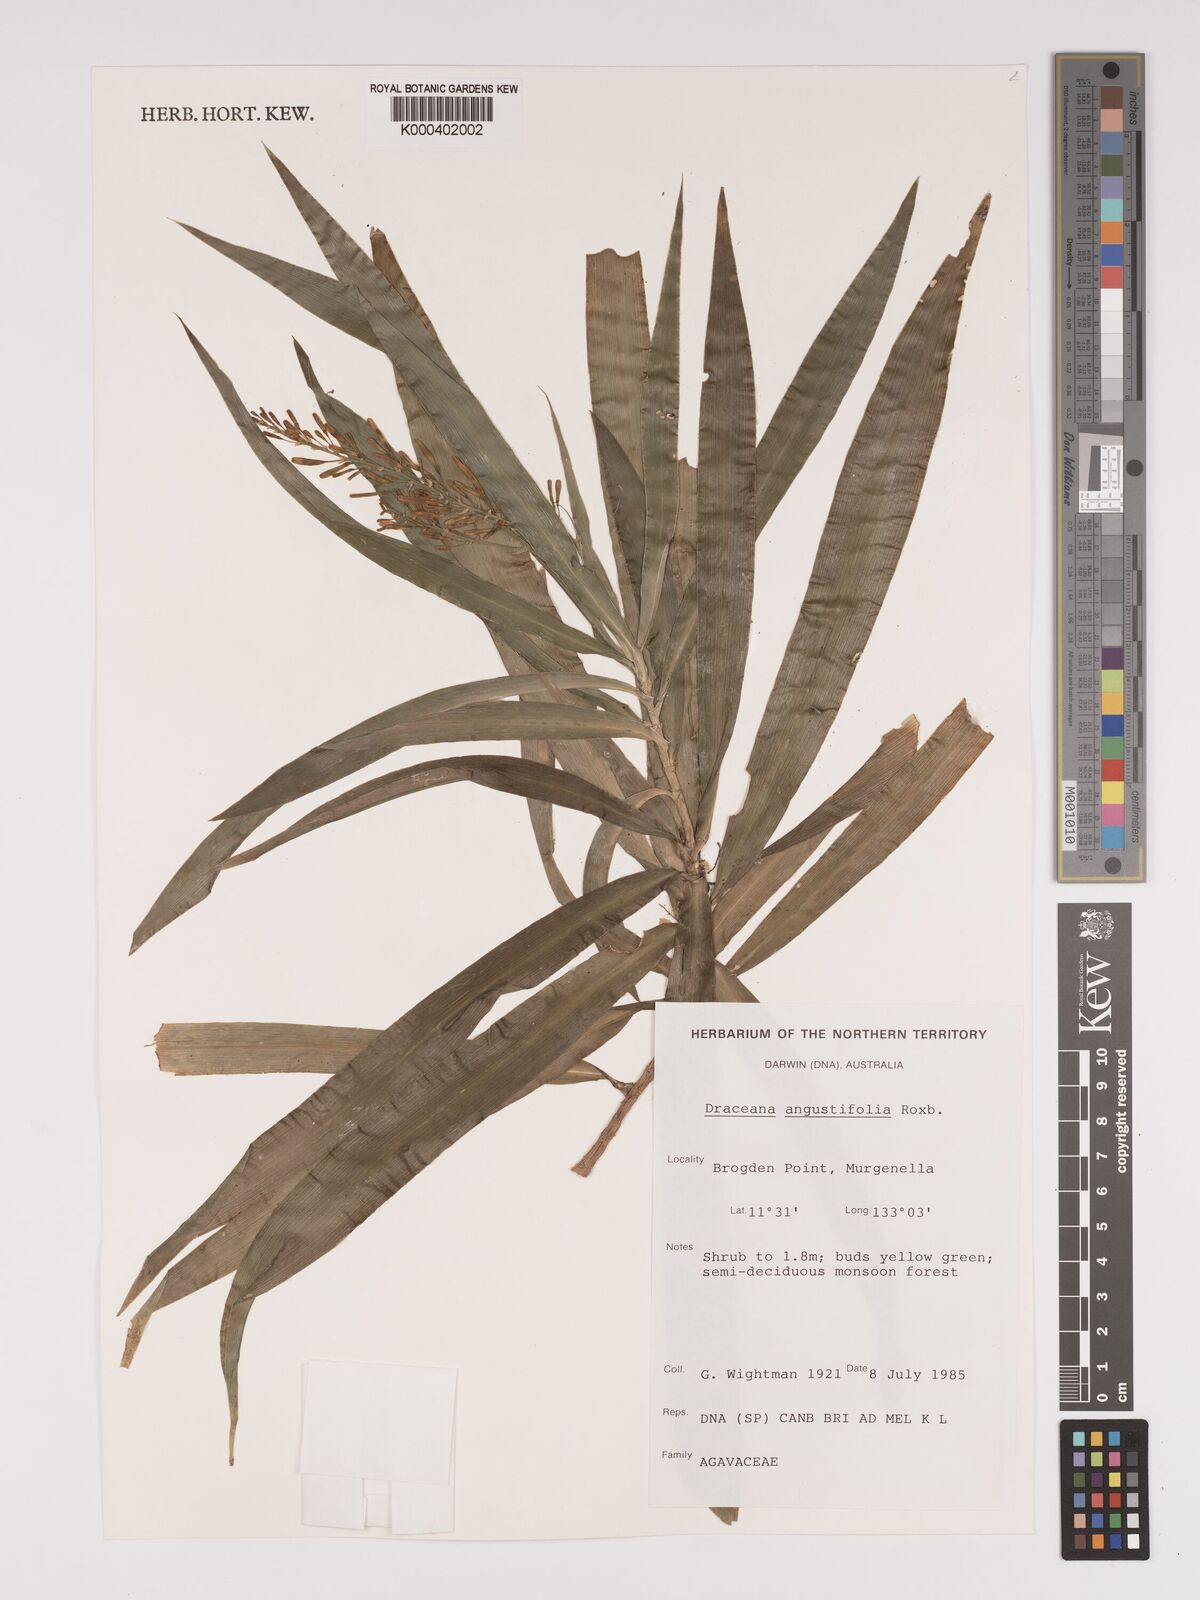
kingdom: Plantae
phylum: Tracheophyta
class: Liliopsida
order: Asparagales
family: Asparagaceae
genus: Dracaena
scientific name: Dracaena angustifolia
